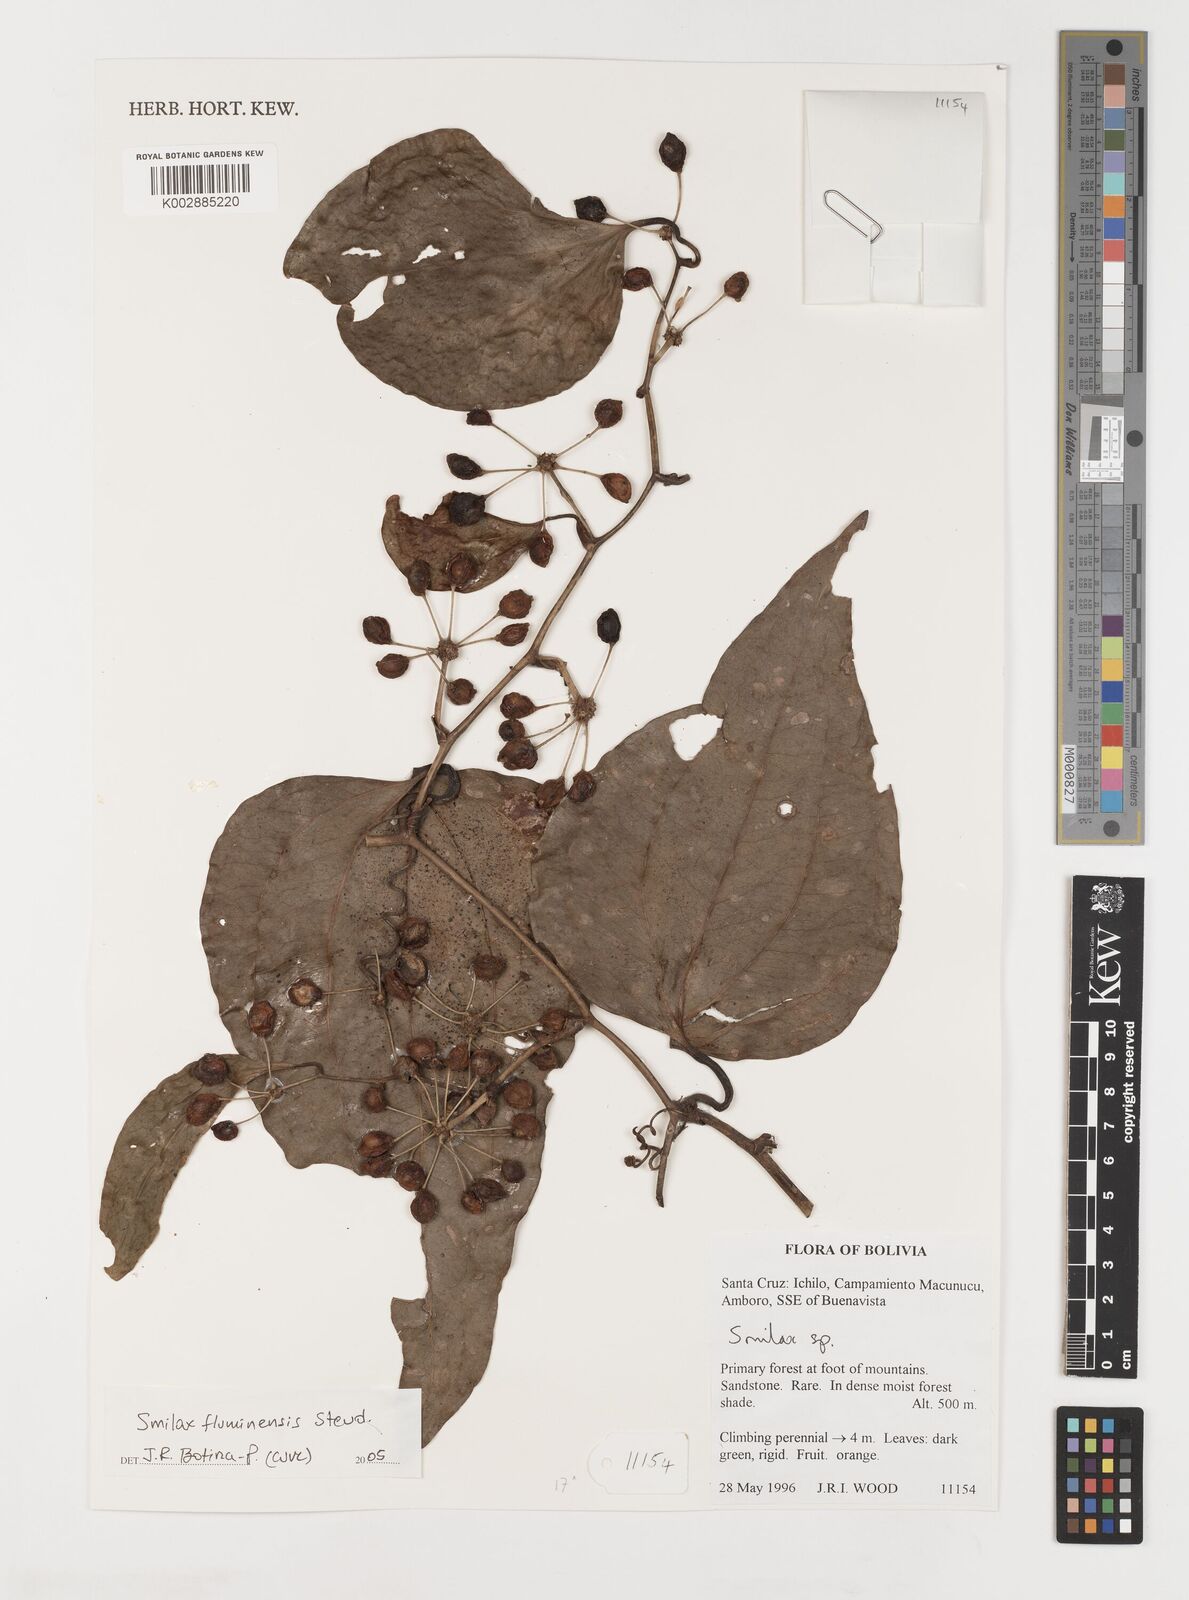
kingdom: Plantae
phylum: Tracheophyta
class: Liliopsida
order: Liliales
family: Smilacaceae
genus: Smilax
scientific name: Smilax fluminensis
